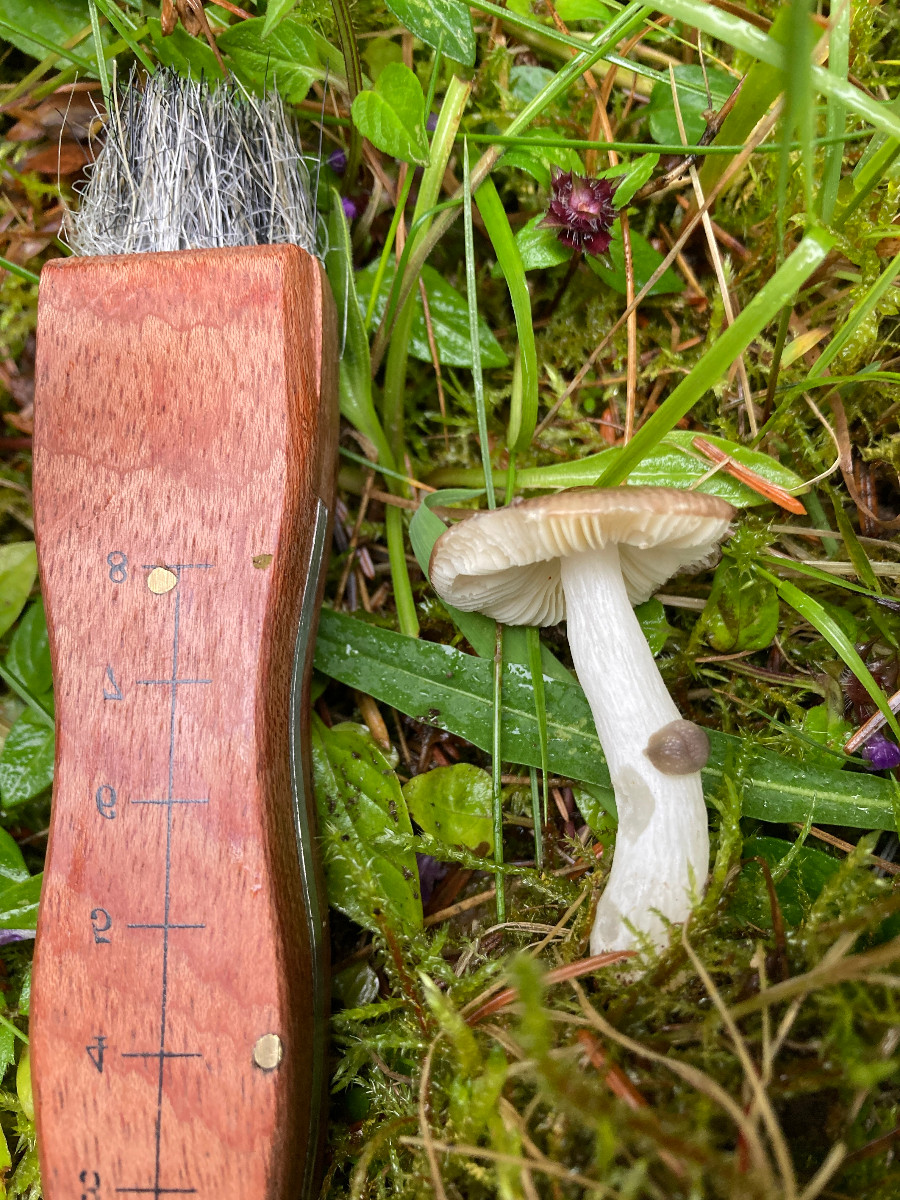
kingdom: Fungi
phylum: Basidiomycota
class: Agaricomycetes
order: Russulales
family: Russulaceae
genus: Russula
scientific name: Russula
